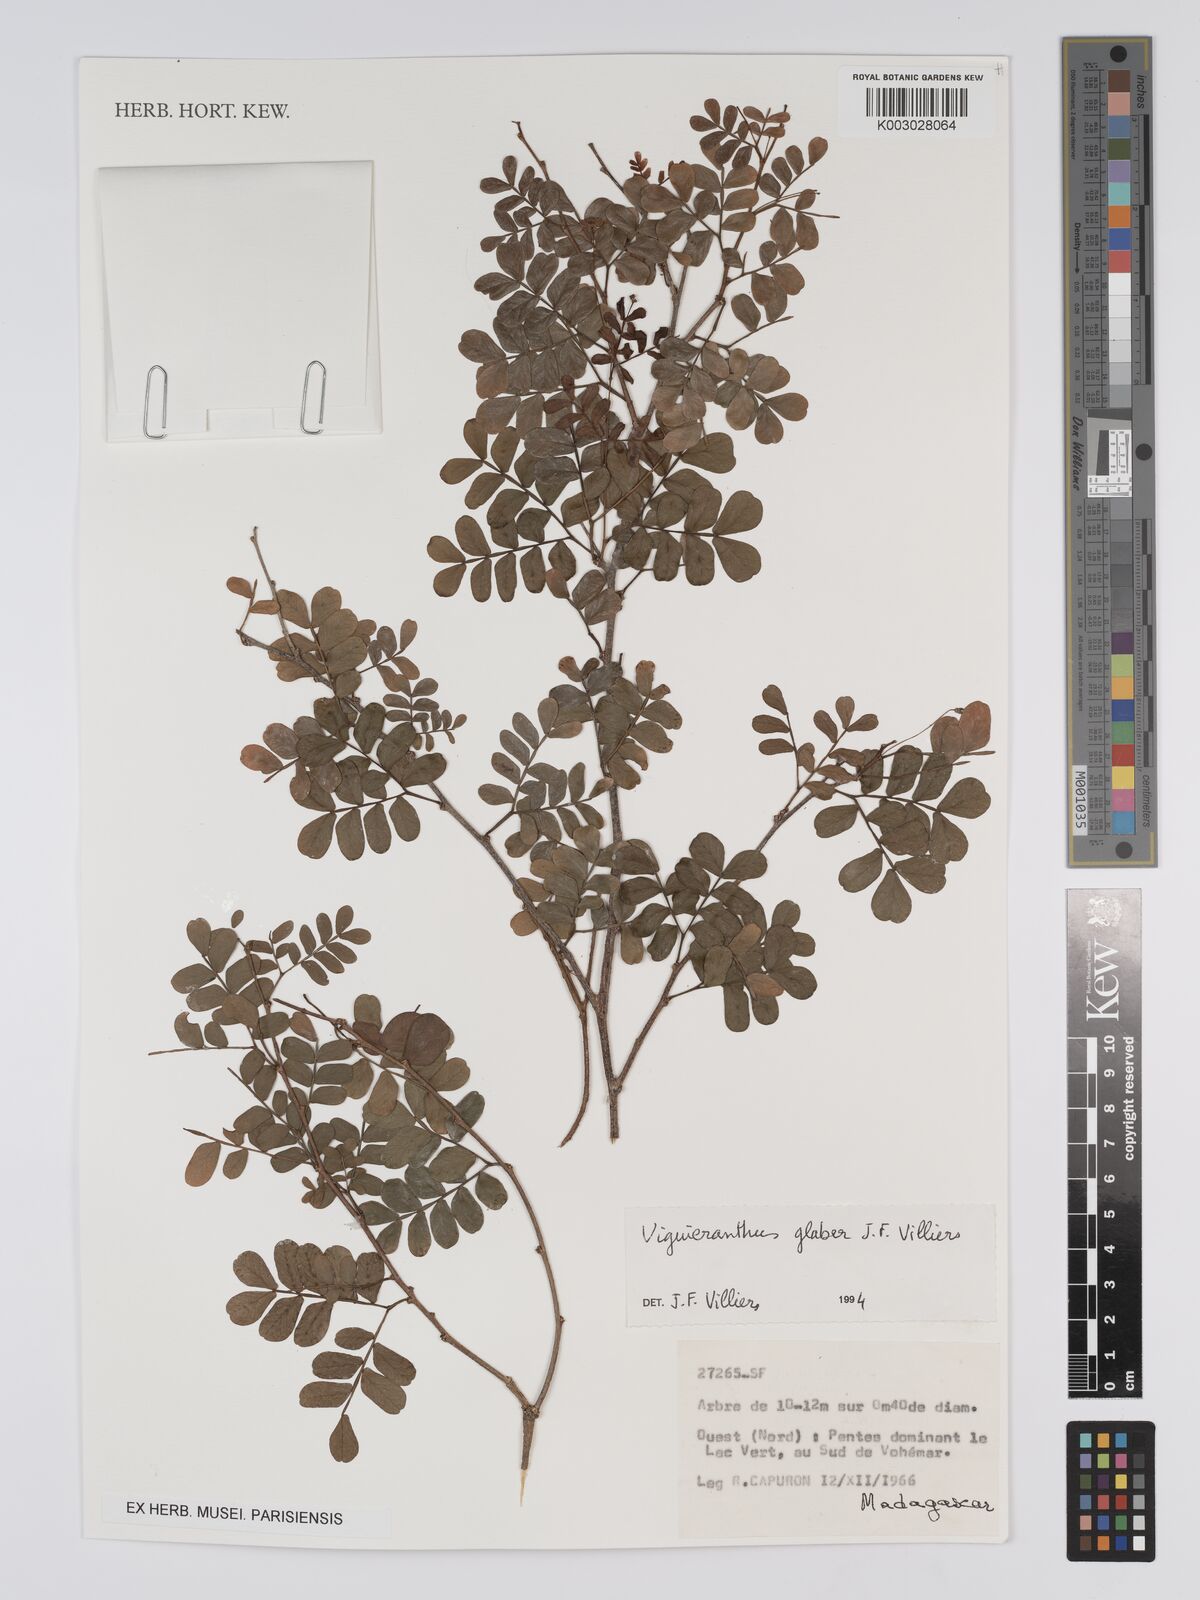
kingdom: Plantae
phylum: Tracheophyta
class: Magnoliopsida
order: Fabales
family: Fabaceae
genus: Viguieranthus
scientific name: Viguieranthus glaber
